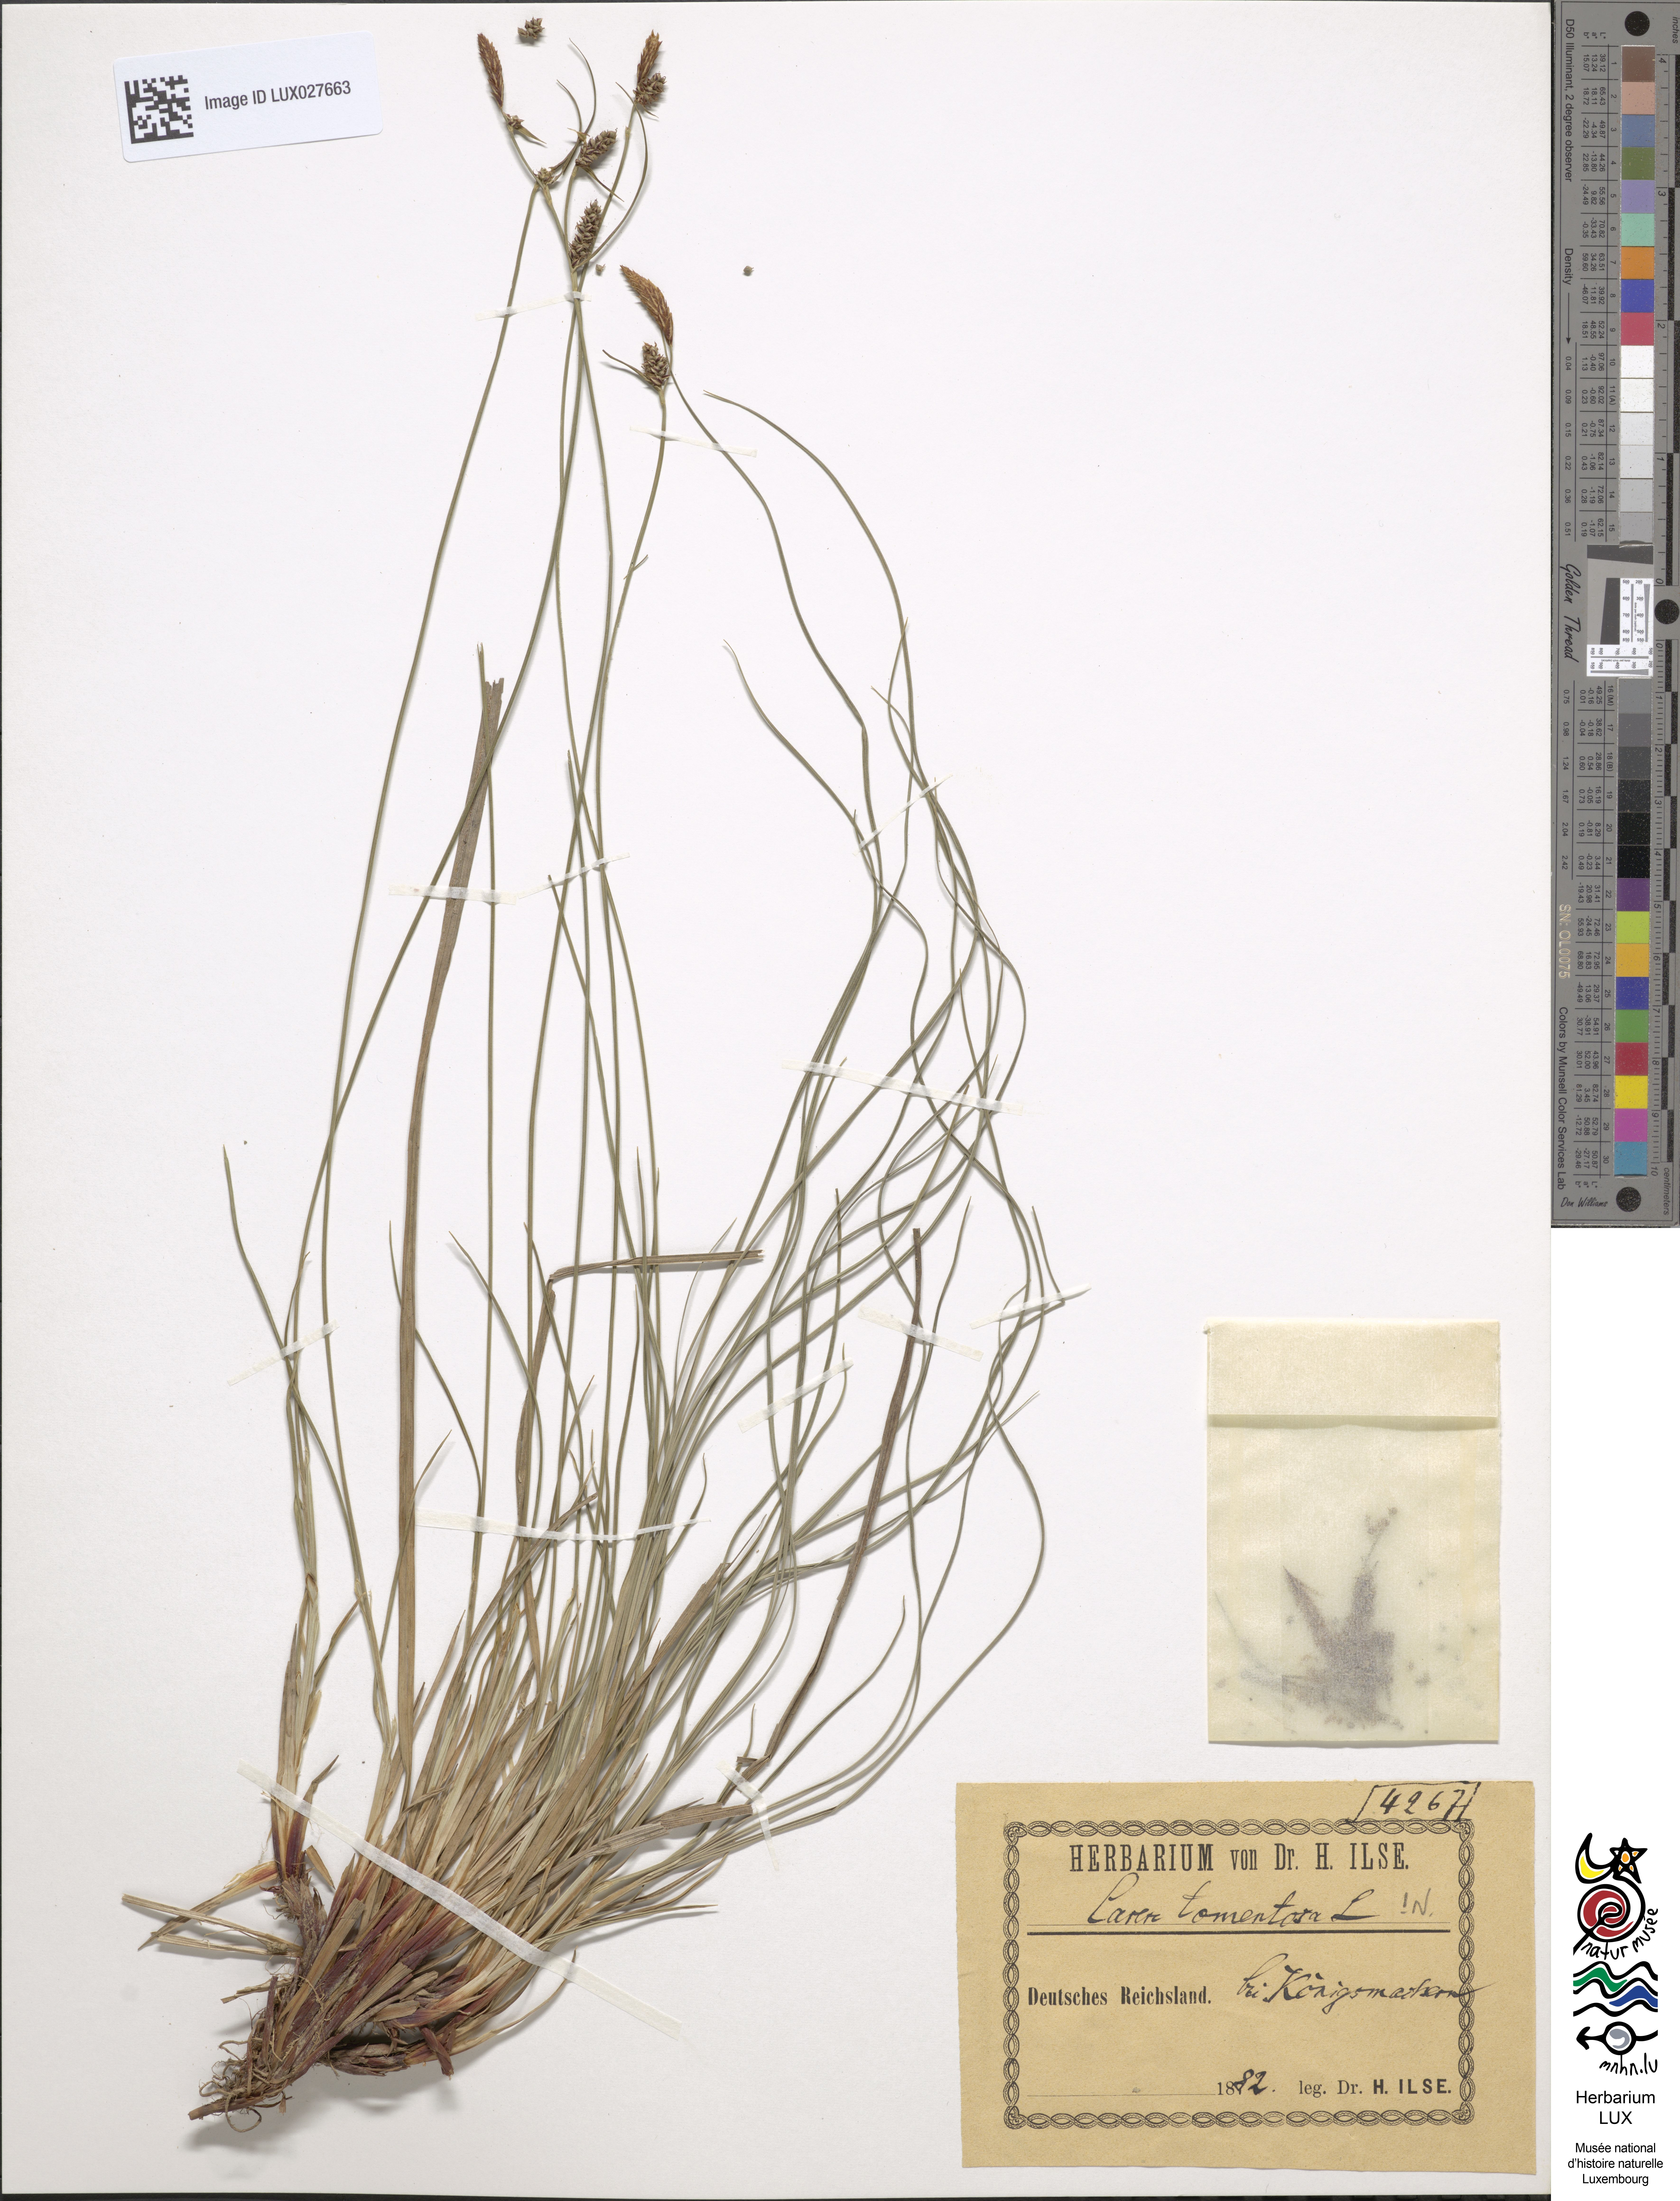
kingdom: Plantae
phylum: Tracheophyta
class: Liliopsida
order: Poales
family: Cyperaceae
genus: Carex
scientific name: Carex tomentosa
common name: Downy-fruited sedge
